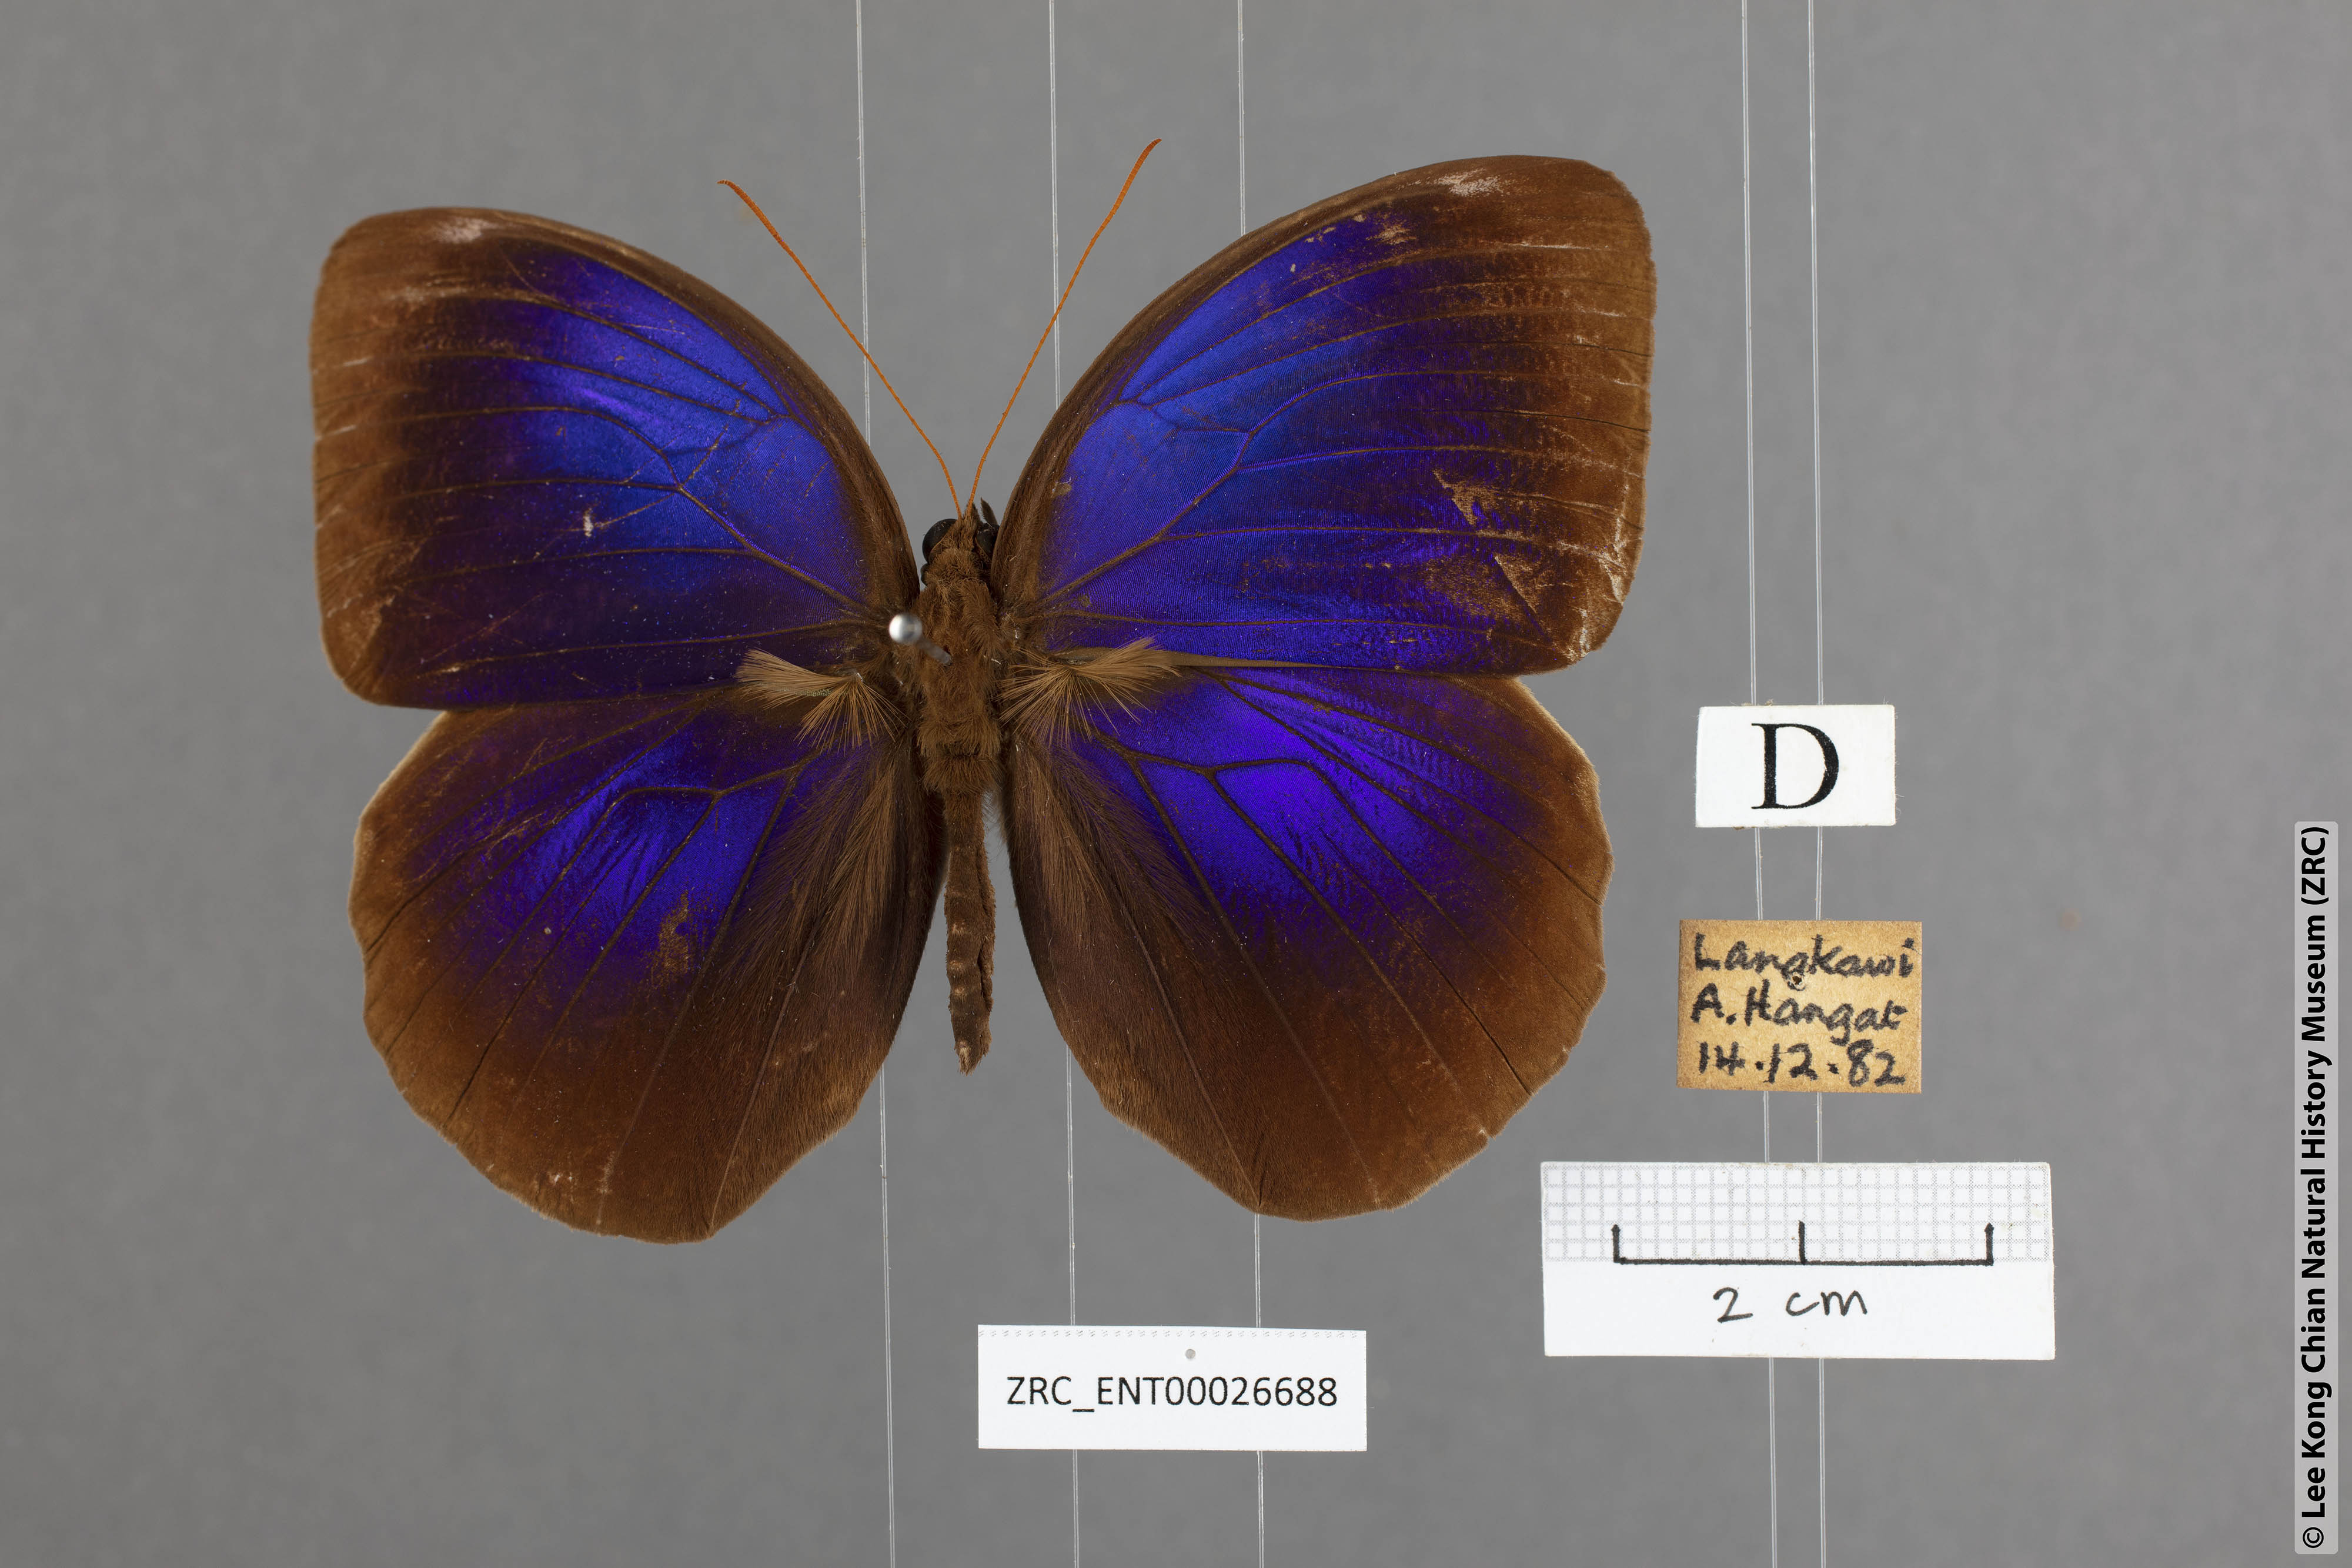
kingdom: Animalia
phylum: Arthropoda
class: Insecta
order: Lepidoptera
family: Nymphalidae
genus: Thaumantis
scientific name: Thaumantis klugius
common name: Dark blue jungle glory
